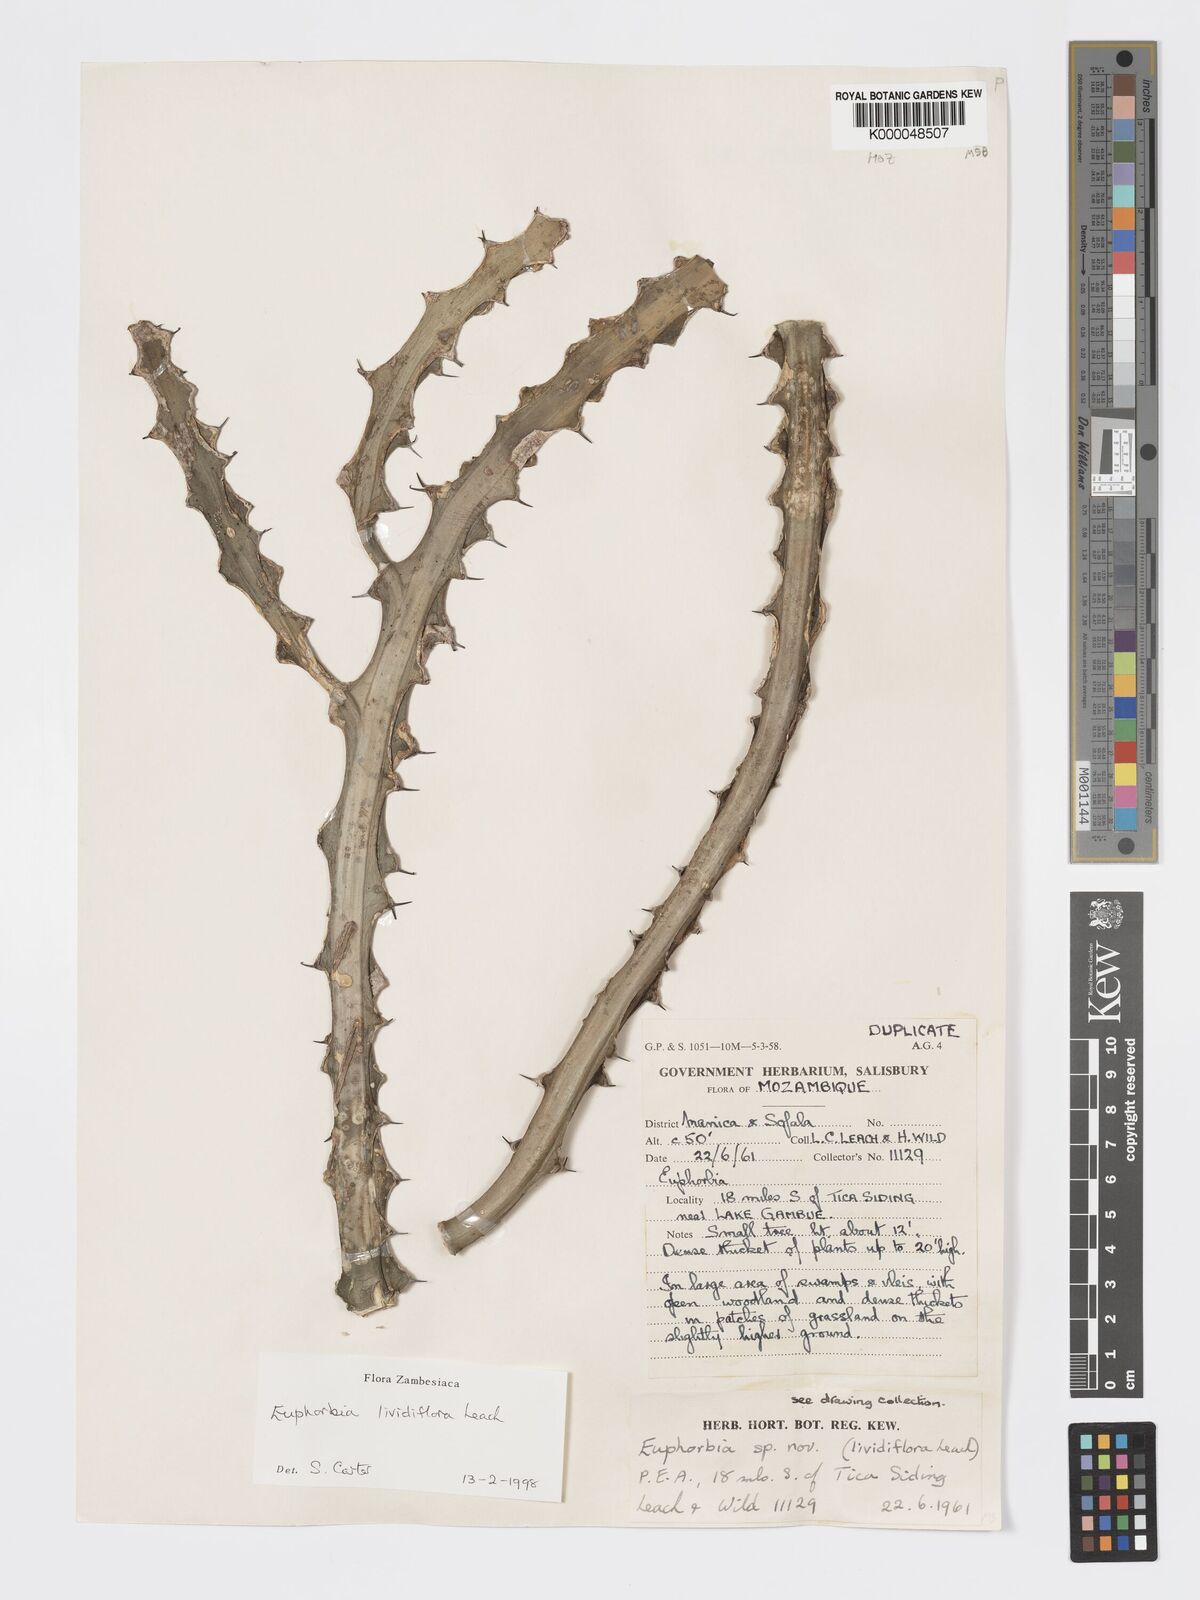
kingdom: Plantae
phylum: Tracheophyta
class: Magnoliopsida
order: Malpighiales
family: Euphorbiaceae
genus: Euphorbia
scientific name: Euphorbia lividiflora
